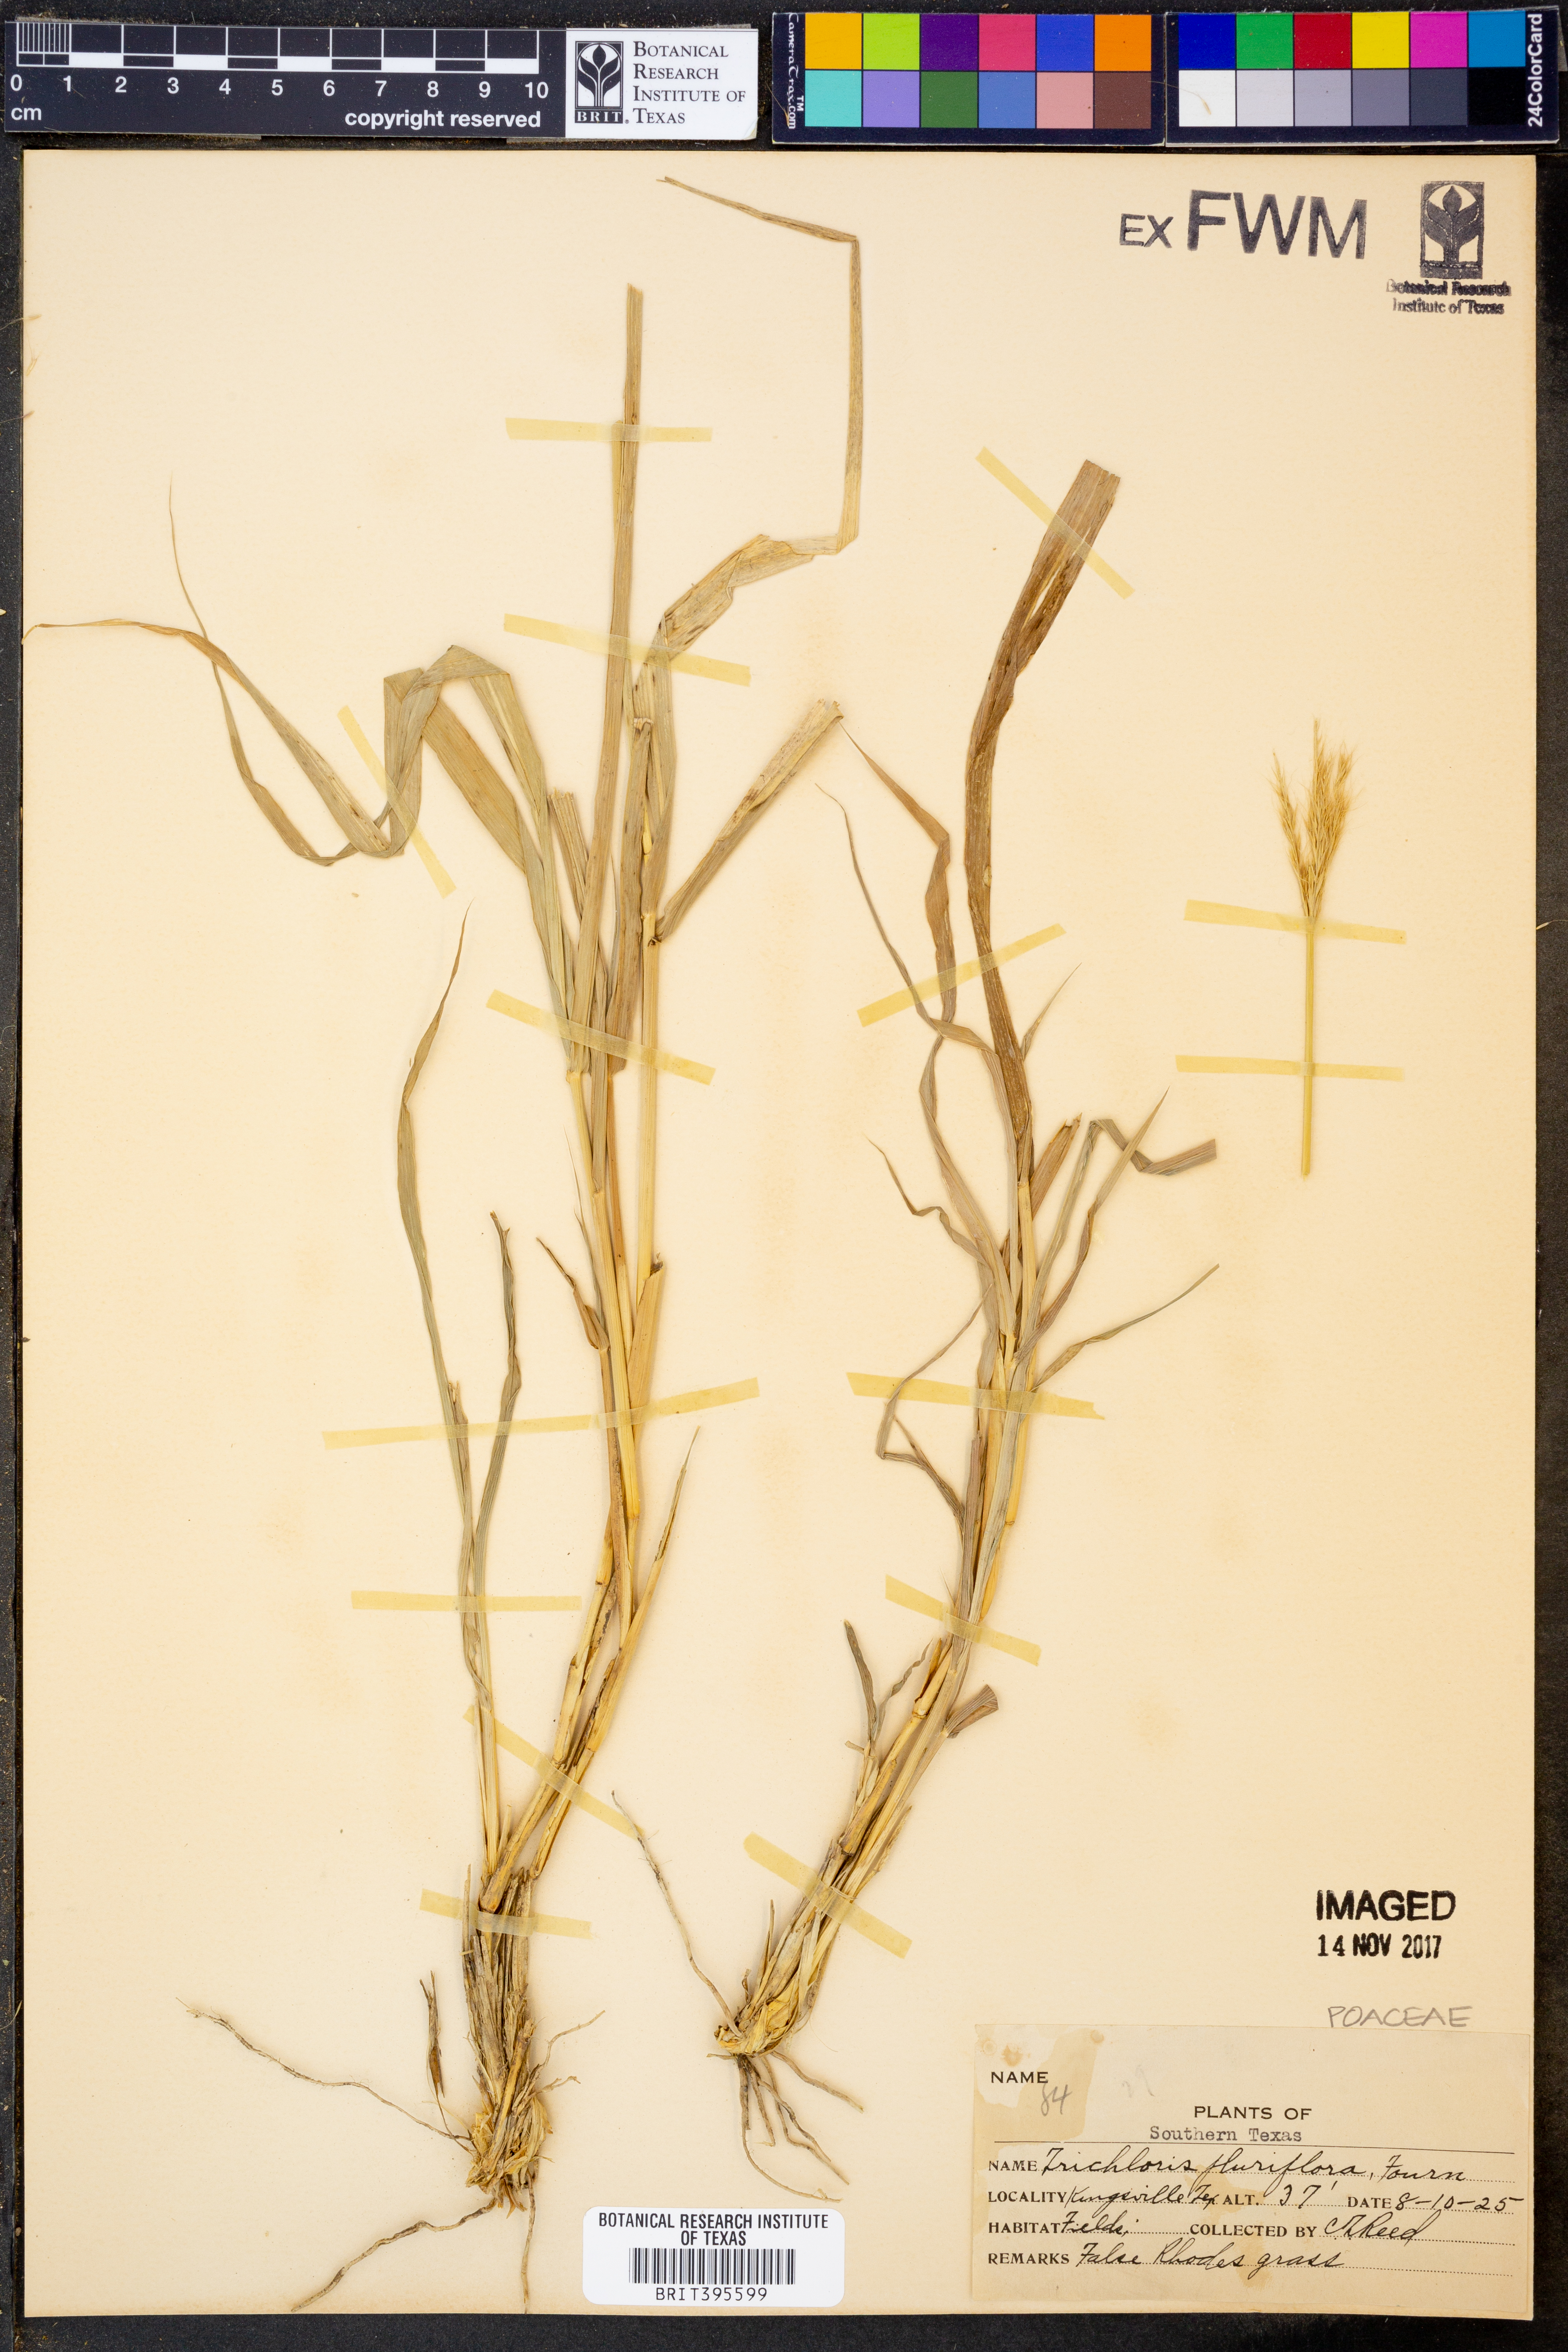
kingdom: Plantae
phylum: Tracheophyta
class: Liliopsida
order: Poales
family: Poaceae
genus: Leptochloa
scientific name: Leptochloa pluriflora
